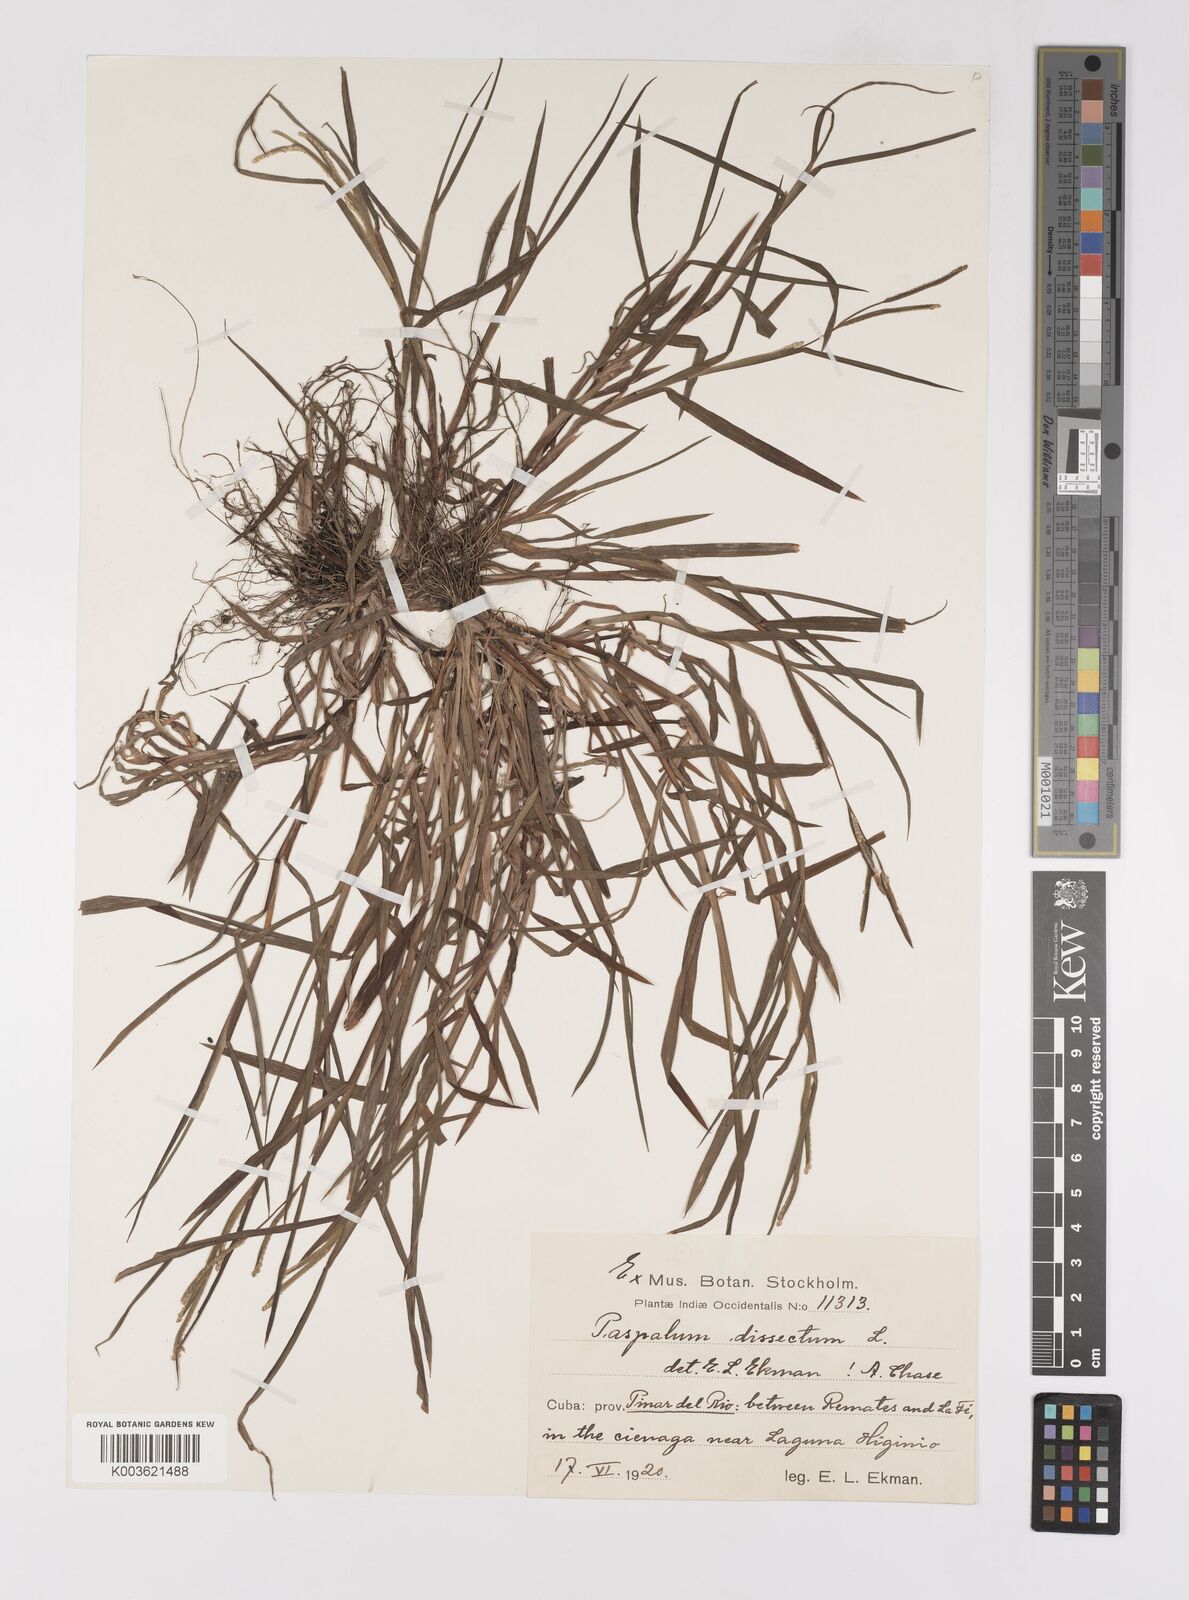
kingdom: Plantae
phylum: Tracheophyta
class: Liliopsida
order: Poales
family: Poaceae
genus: Paspalum
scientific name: Paspalum dissectum
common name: Bead grass
